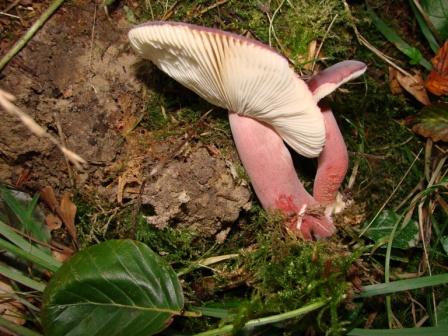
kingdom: Fungi
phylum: Basidiomycota
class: Agaricomycetes
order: Russulales
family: Russulaceae
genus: Russula
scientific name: Russula queletii
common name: Quélets skørhat
